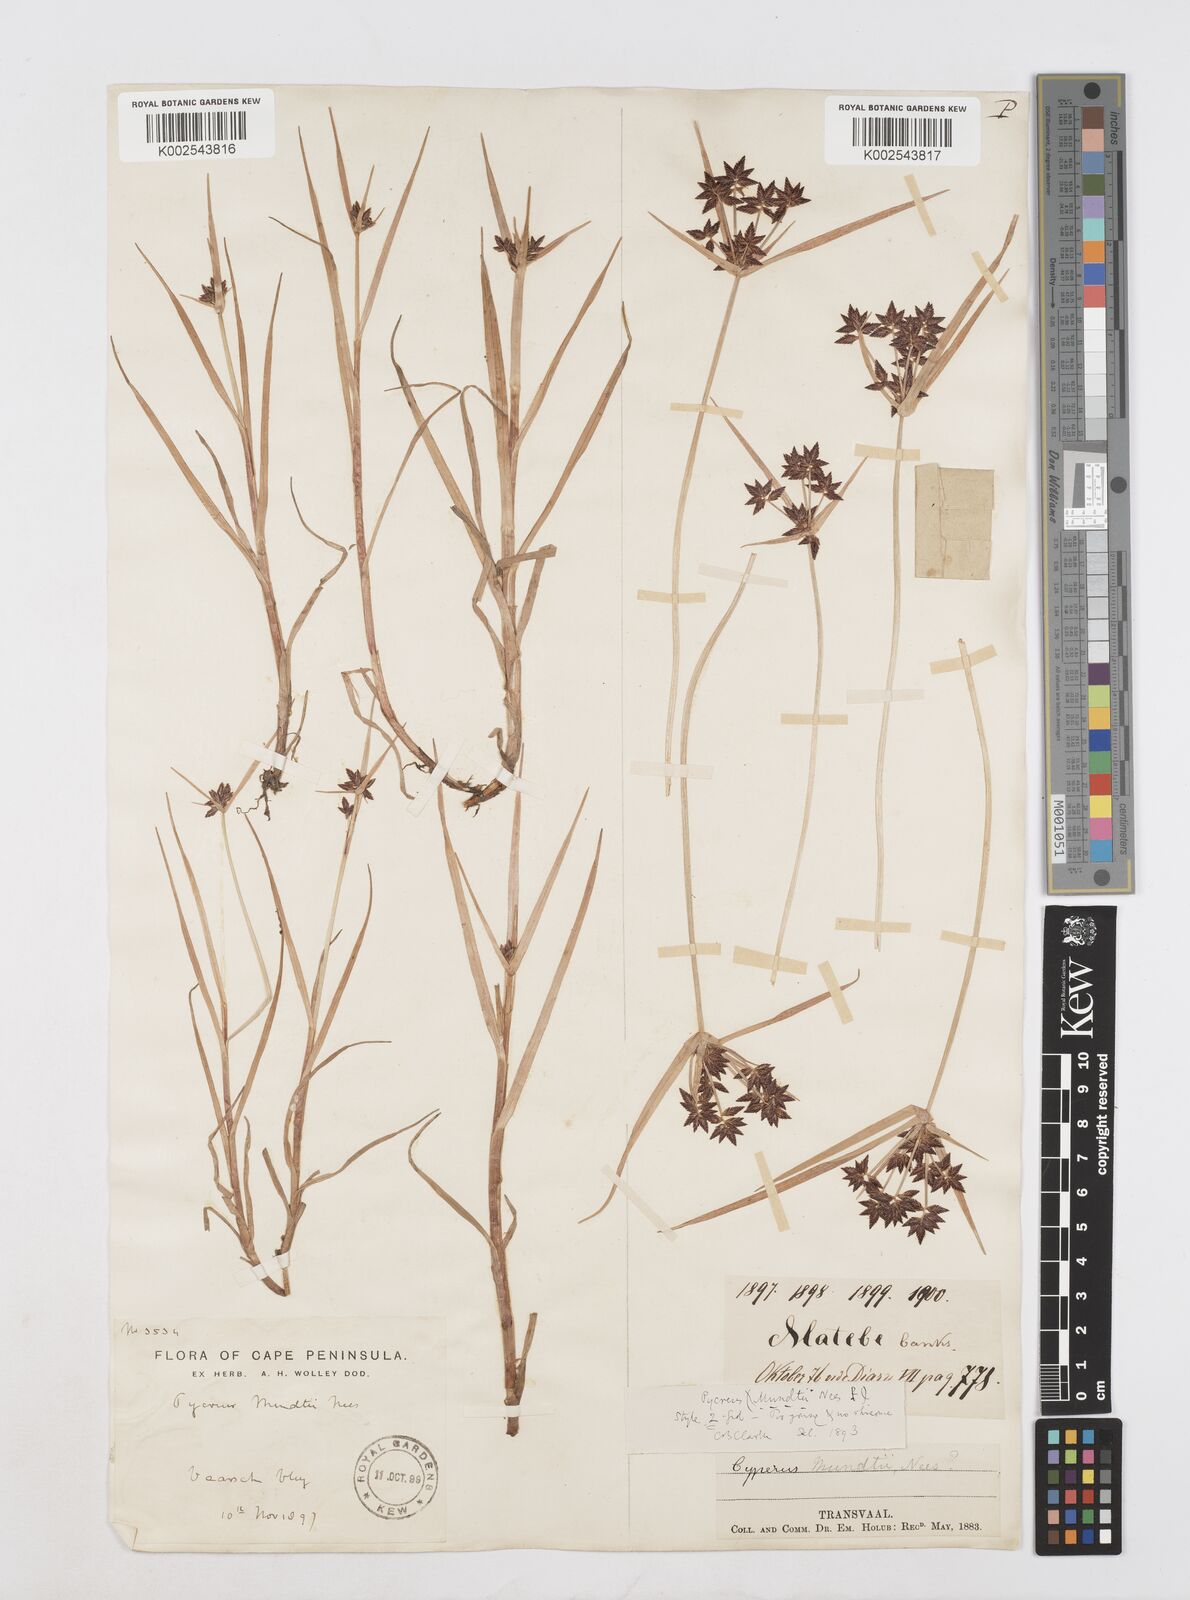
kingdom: Plantae
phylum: Tracheophyta
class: Liliopsida
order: Poales
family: Cyperaceae
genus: Cyperus
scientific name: Cyperus mundii
